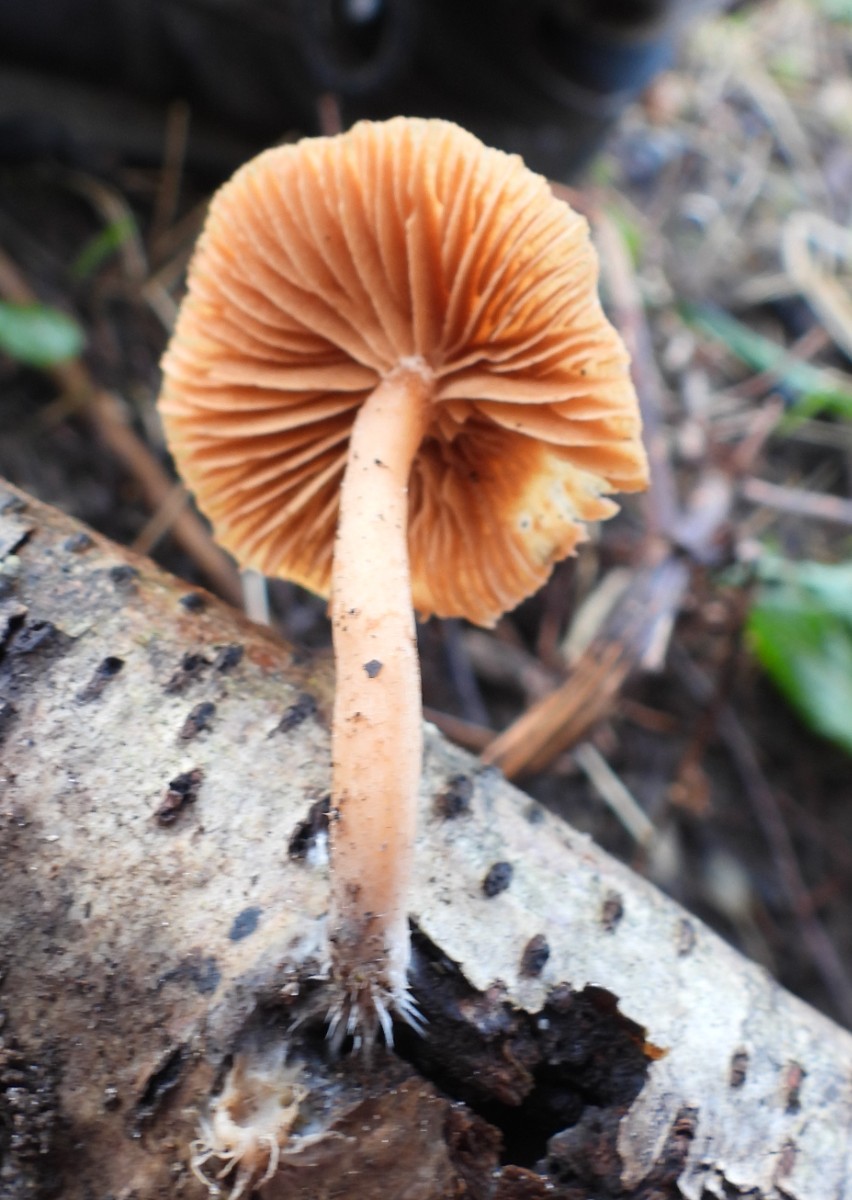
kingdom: Fungi
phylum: Basidiomycota
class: Agaricomycetes
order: Agaricales
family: Tubariaceae
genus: Tubaria
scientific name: Tubaria furfuracea
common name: kliddet fnughat
